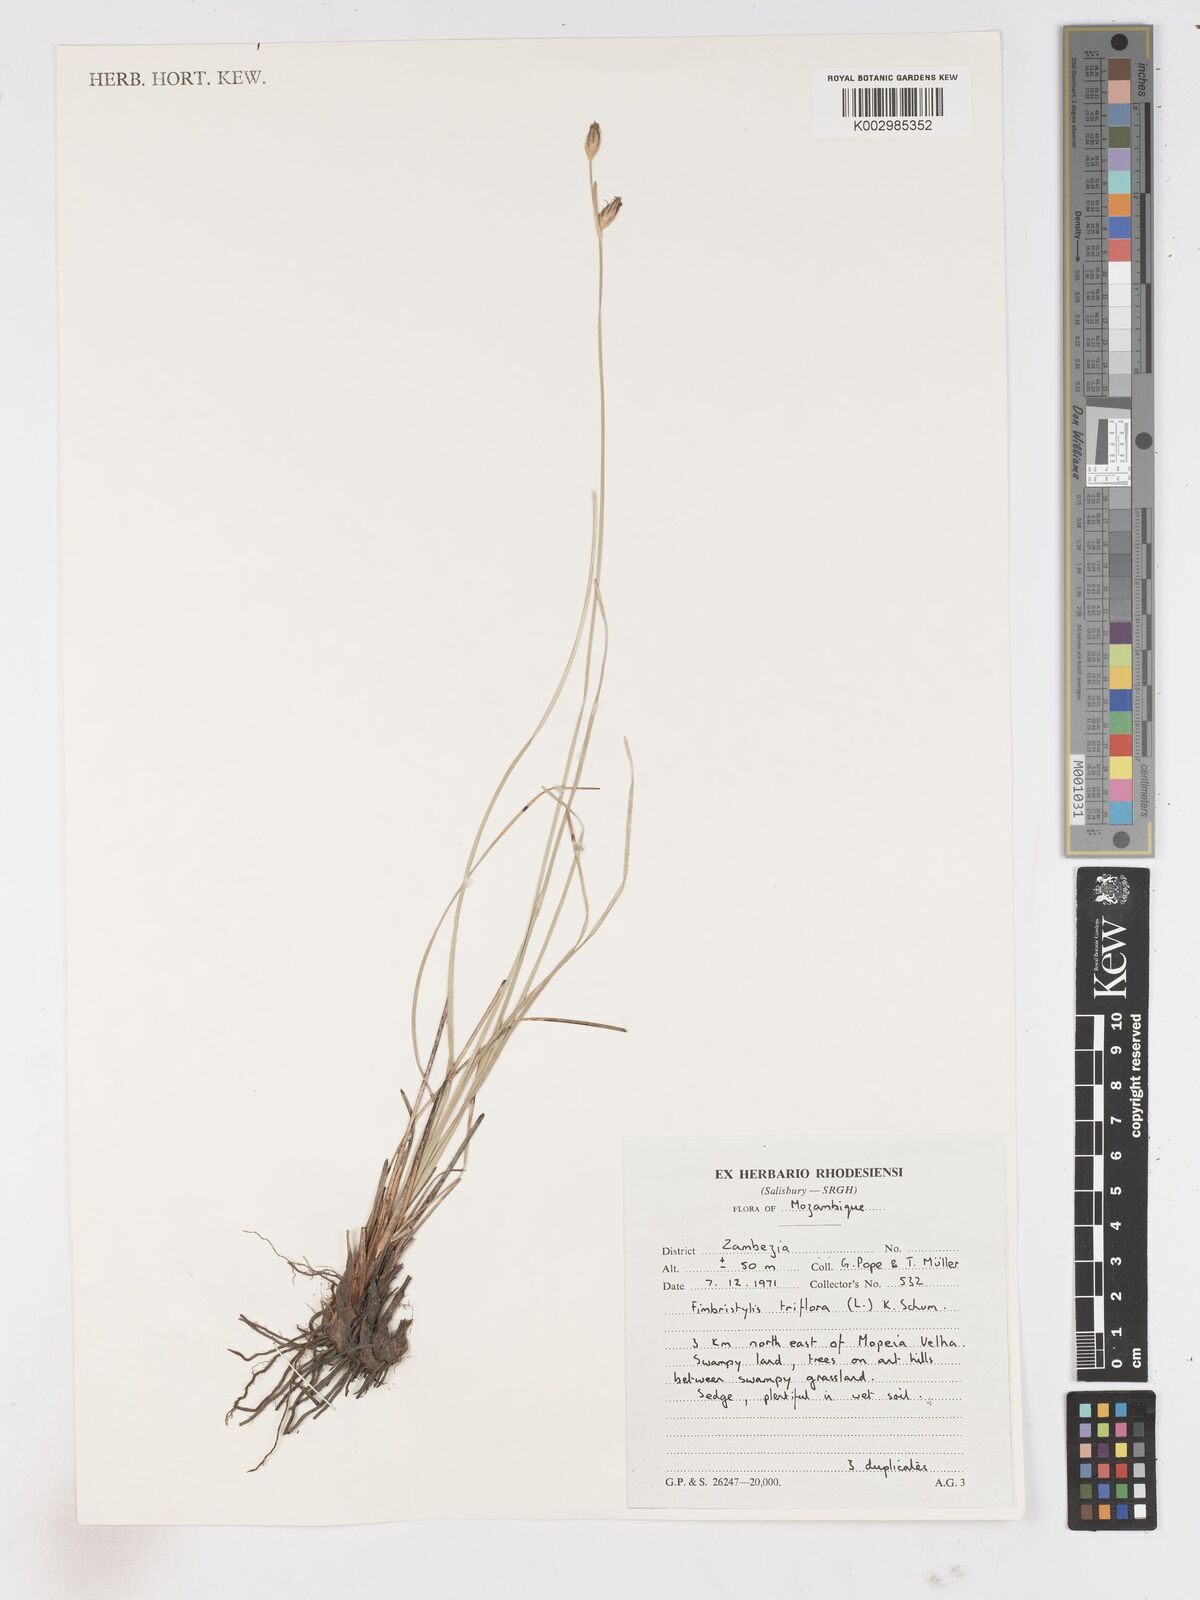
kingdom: Plantae
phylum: Tracheophyta
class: Liliopsida
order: Poales
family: Cyperaceae
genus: Abildgaardia
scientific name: Abildgaardia triflora
